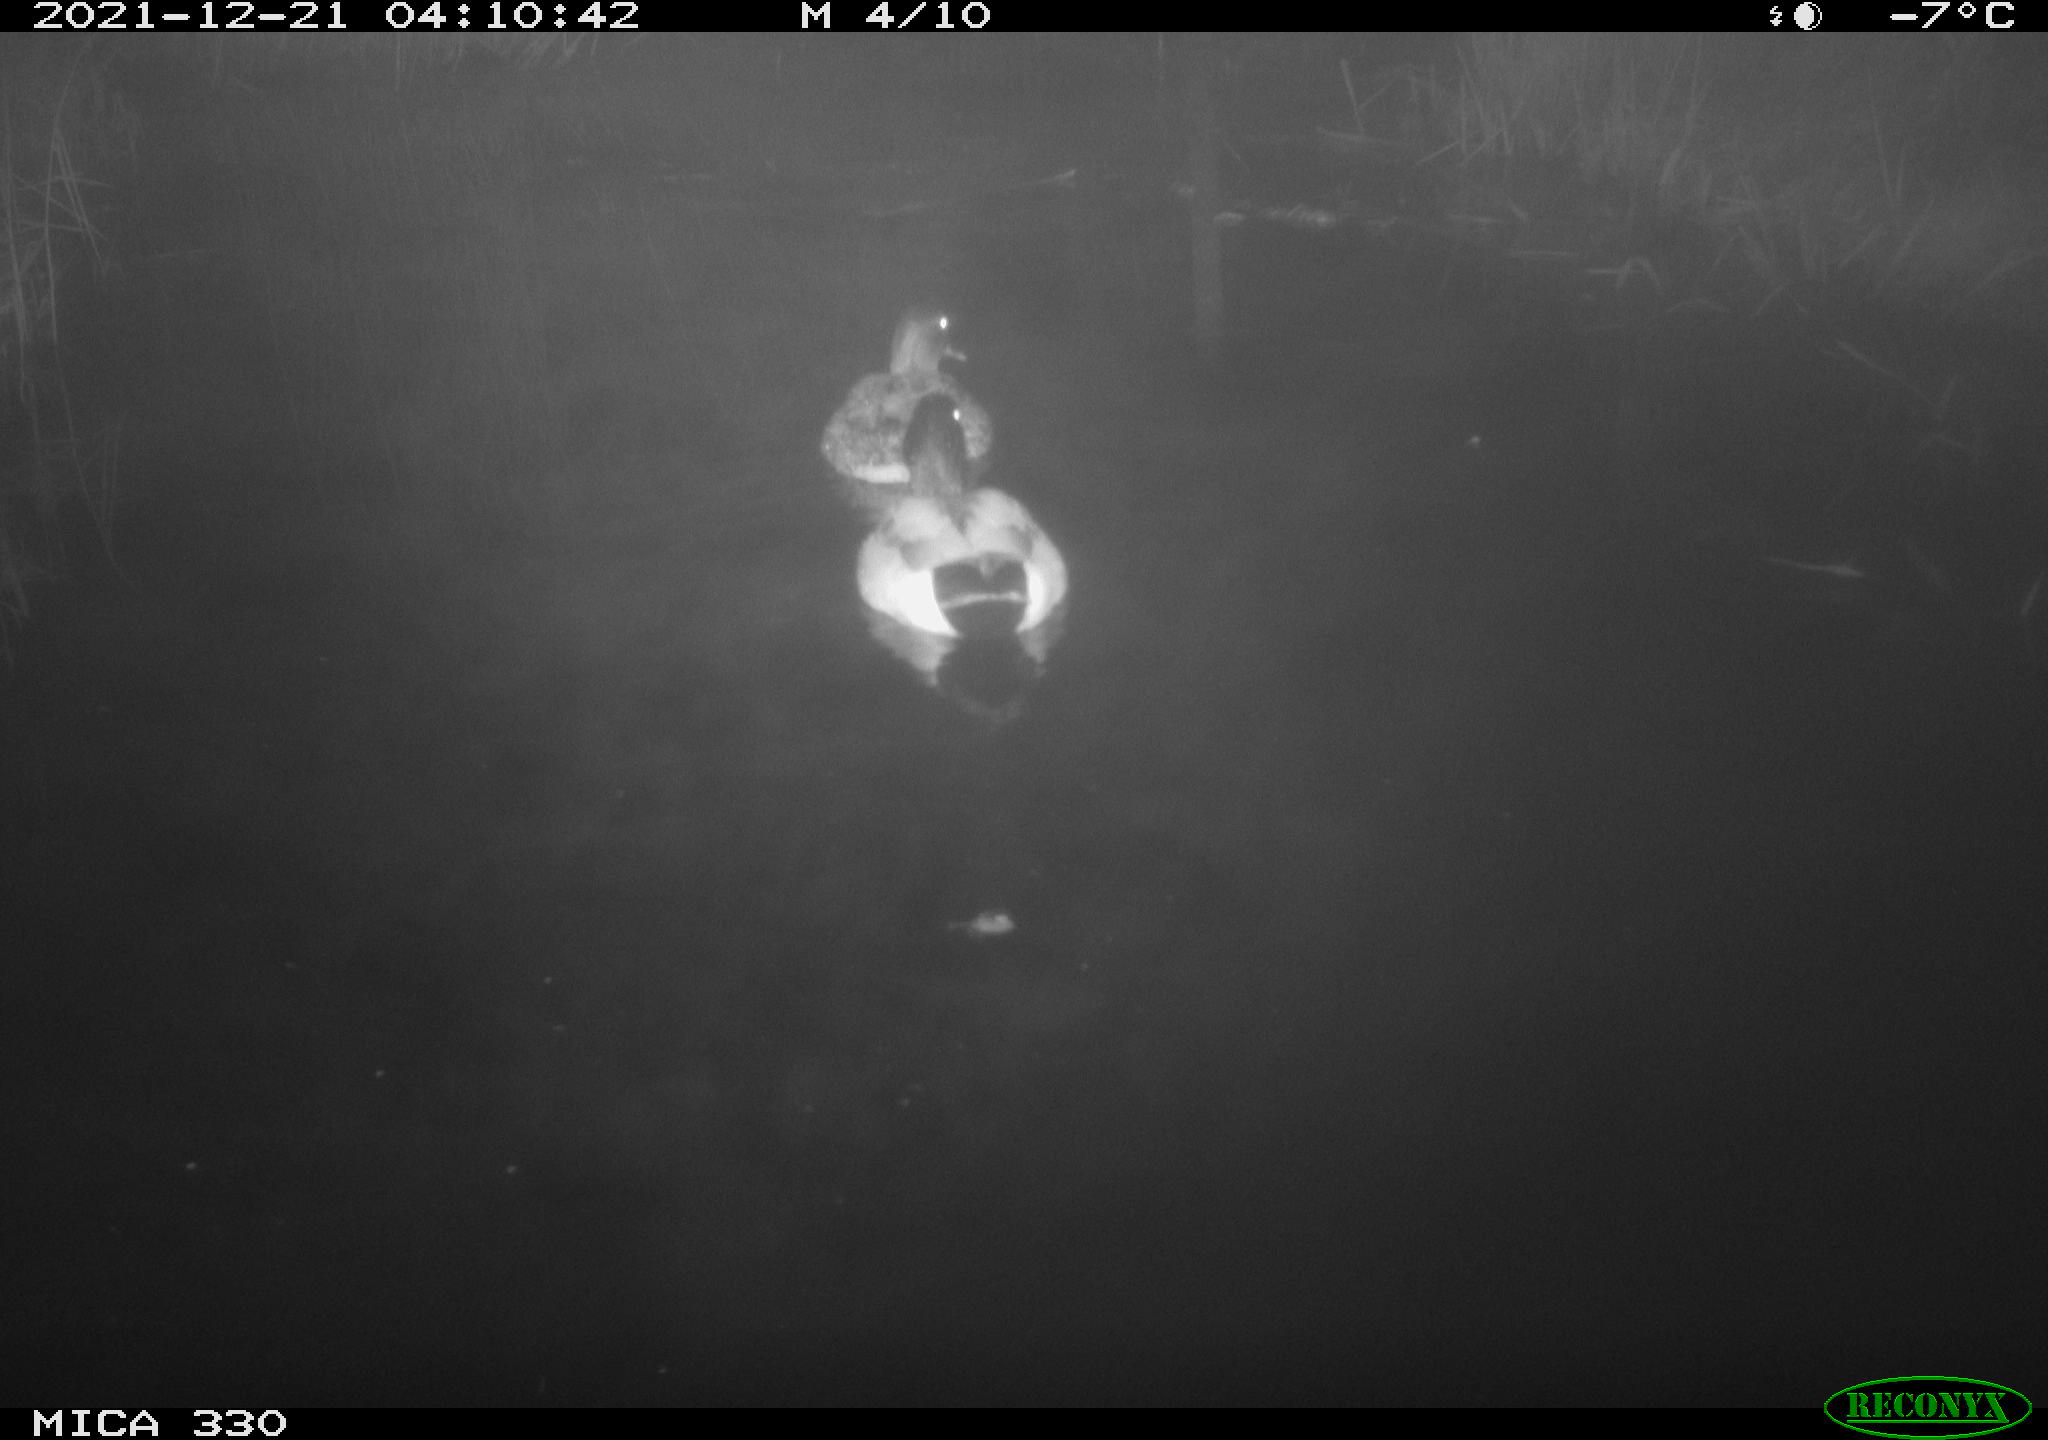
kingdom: Animalia
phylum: Chordata
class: Aves
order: Anseriformes
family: Anatidae
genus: Anas
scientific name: Anas platyrhynchos
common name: Mallard
